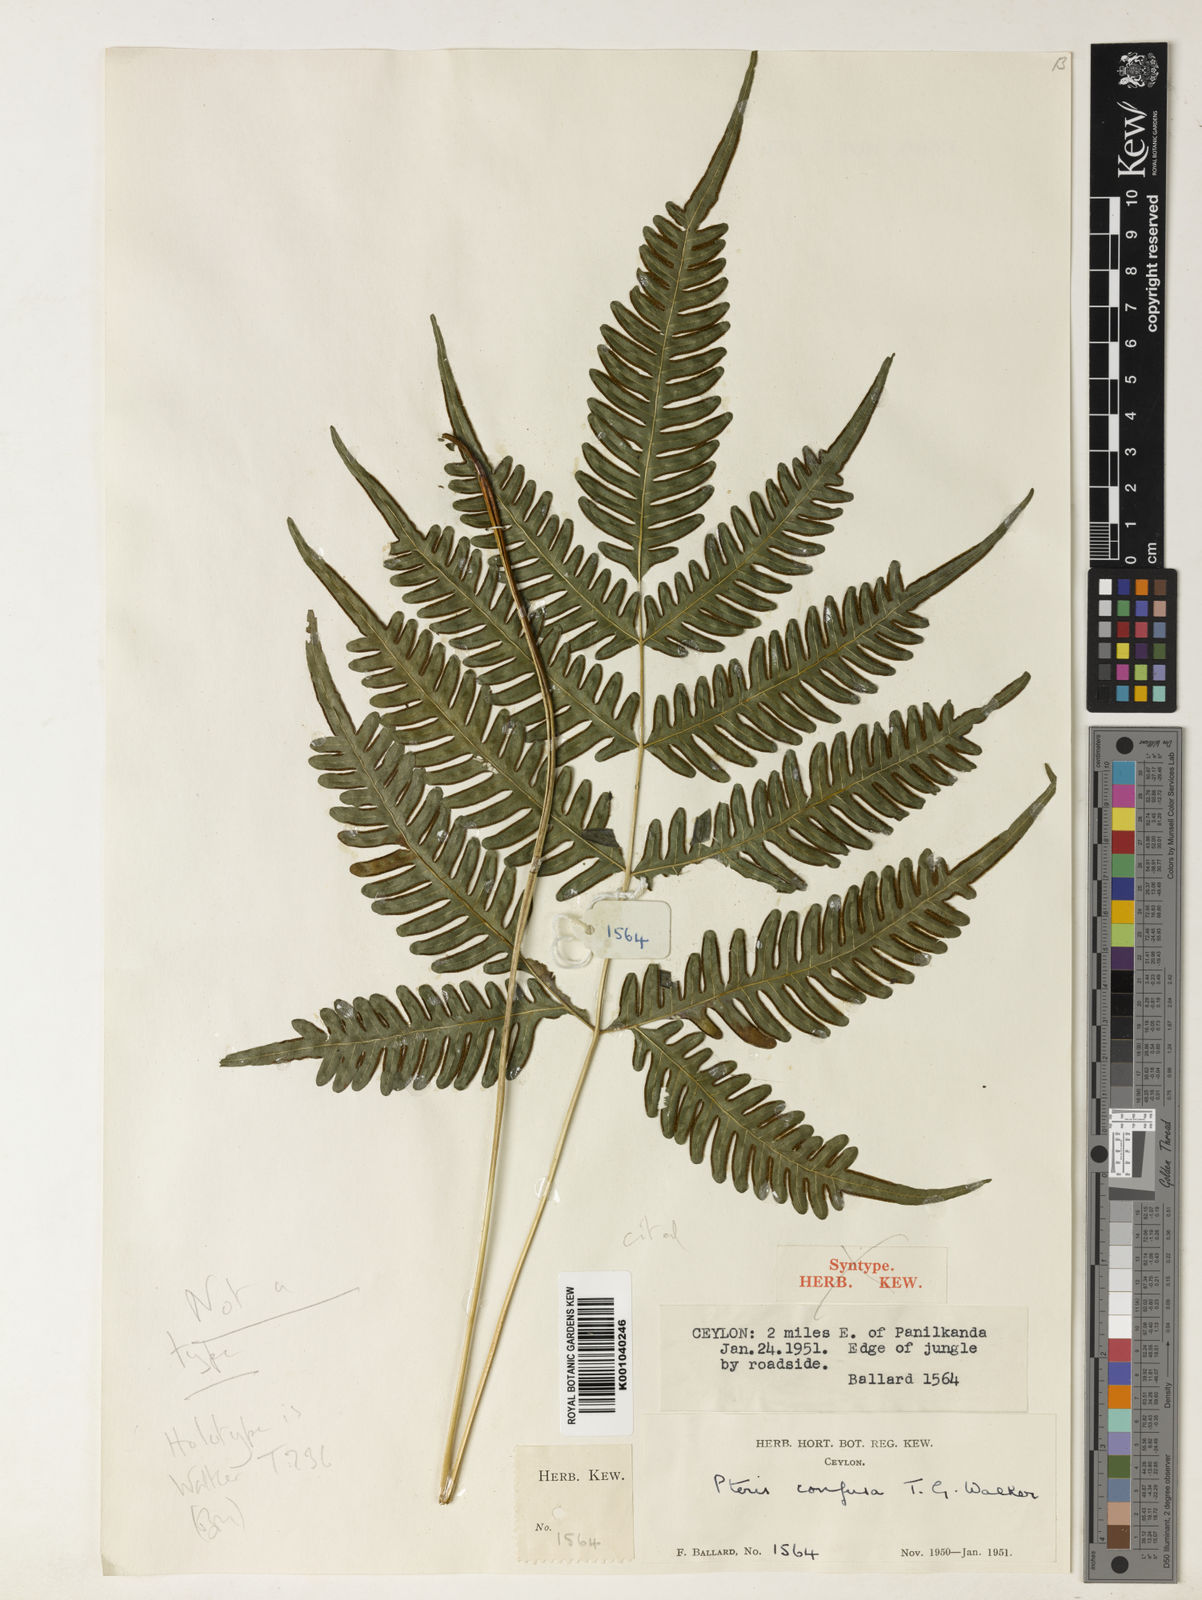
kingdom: Plantae
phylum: Tracheophyta
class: Polypodiopsida
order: Polypodiales
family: Pteridaceae
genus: Pteris
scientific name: Pteris argyraea
